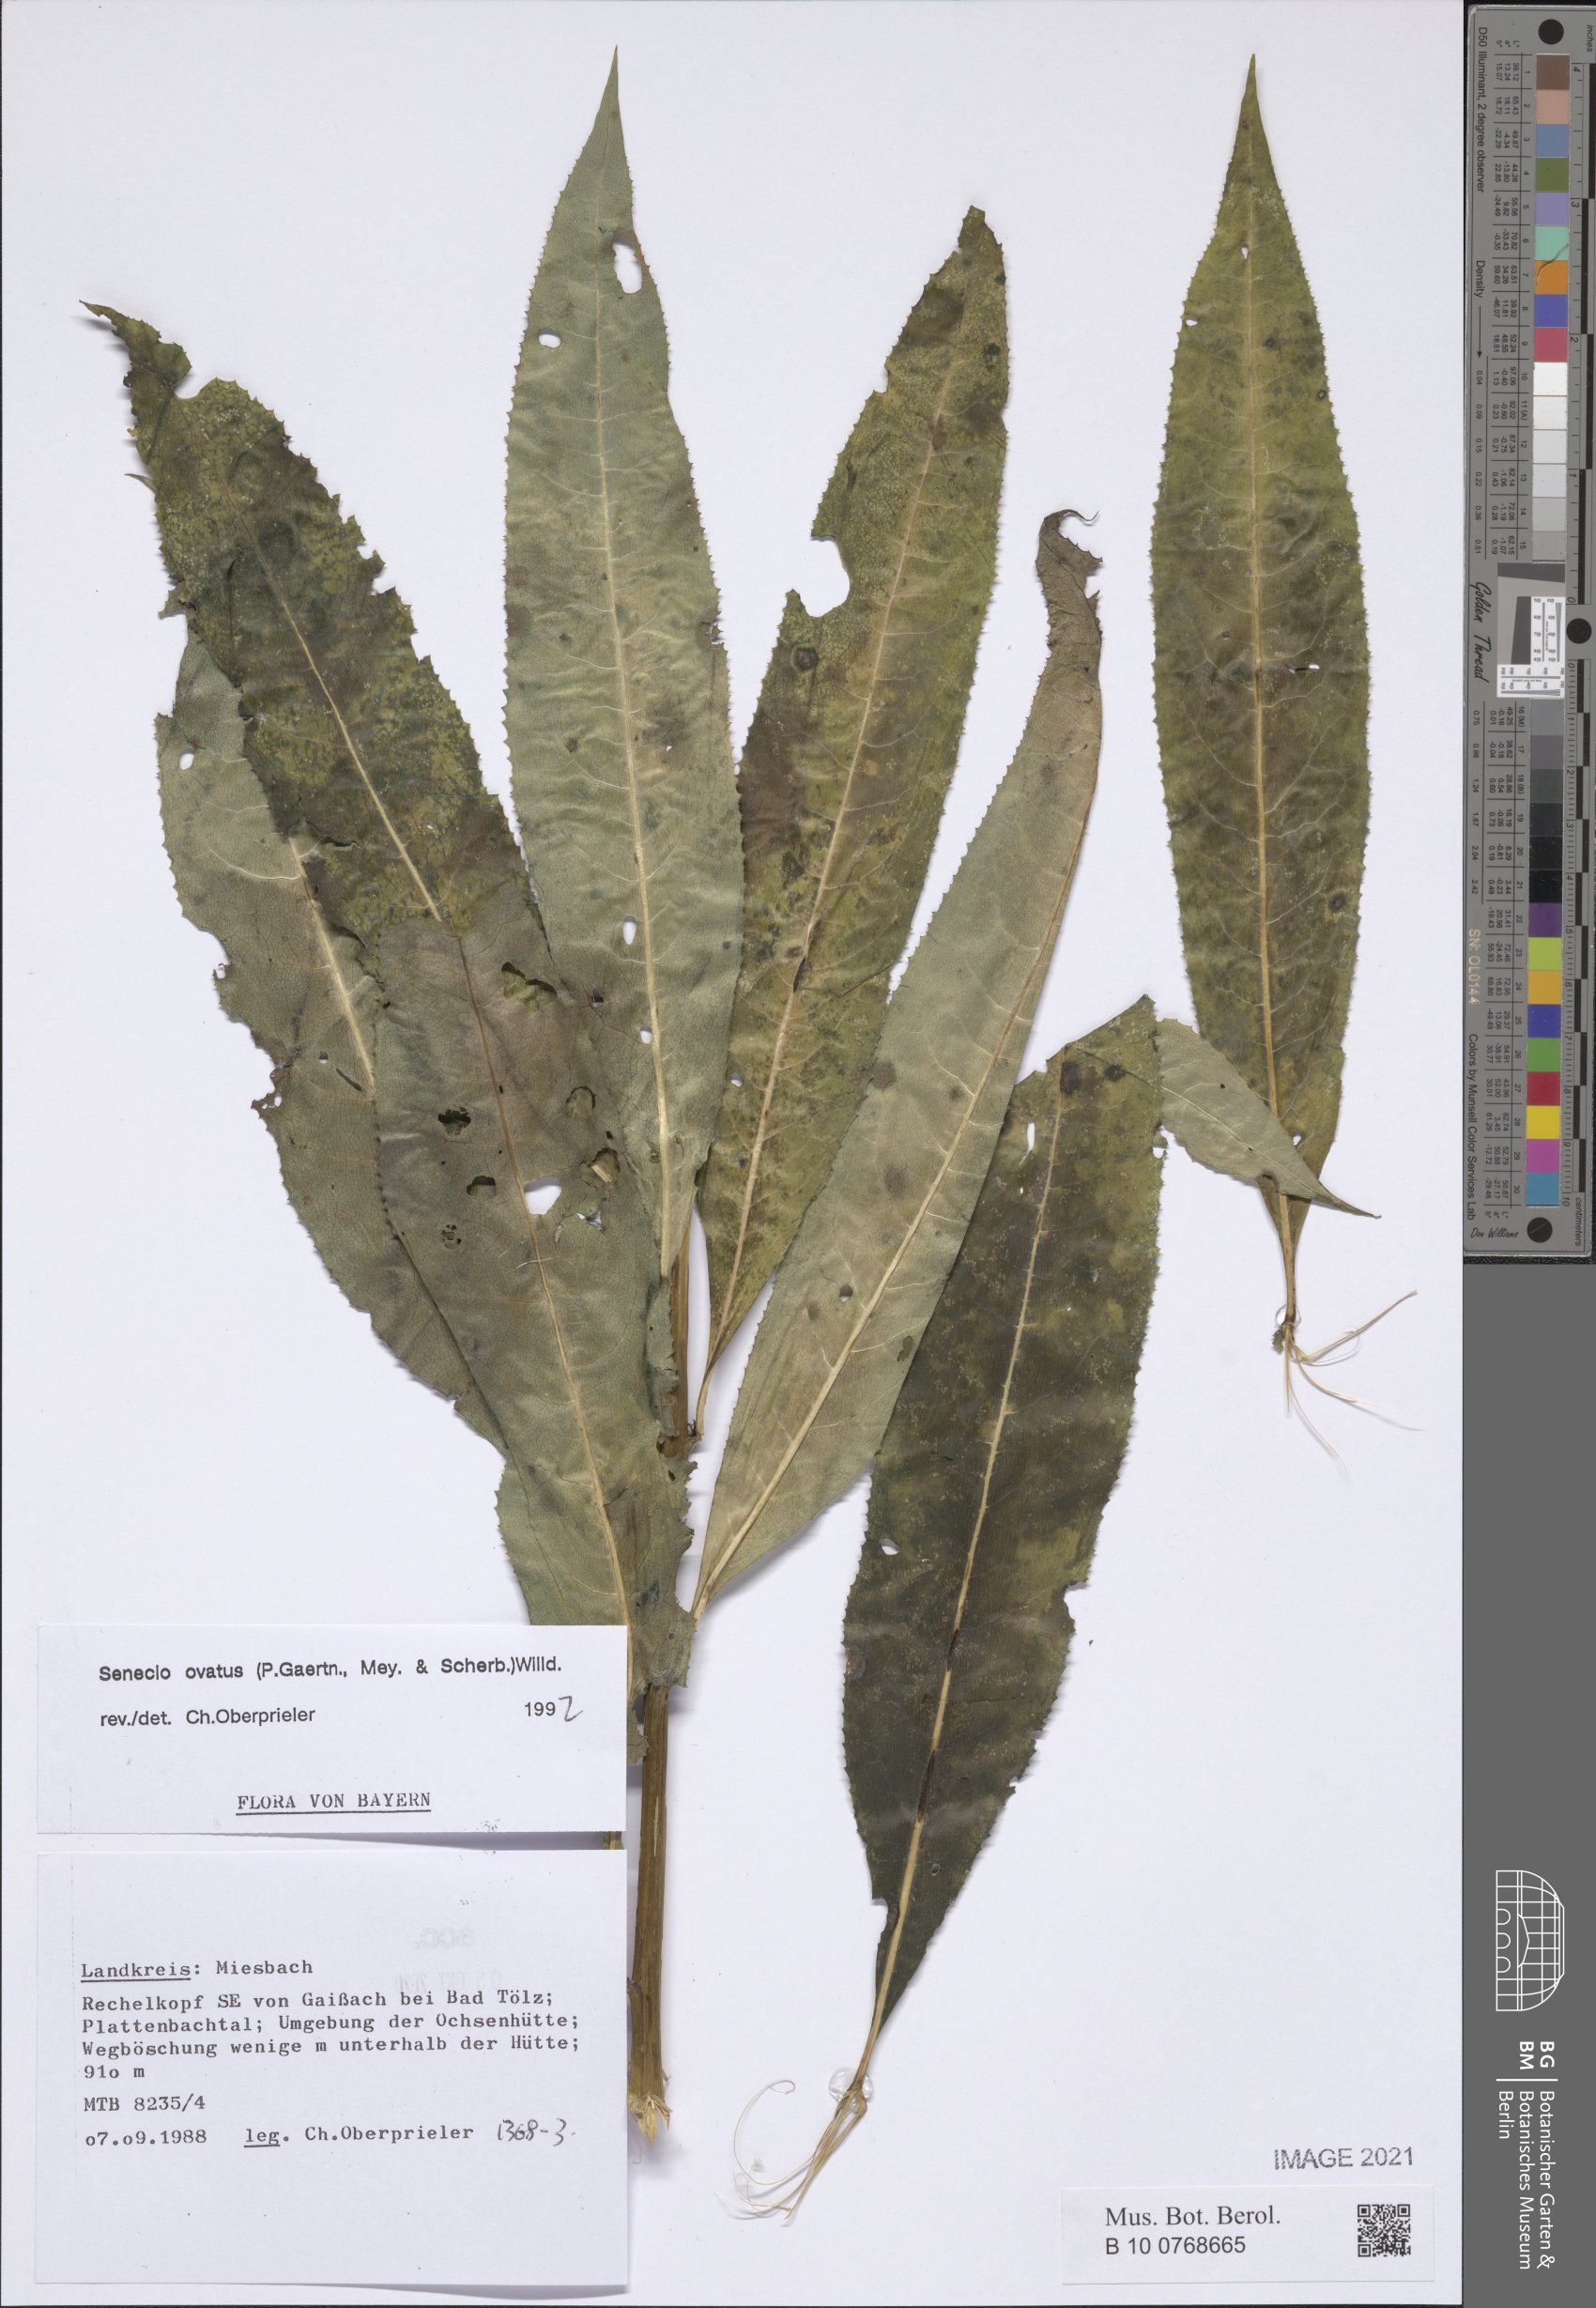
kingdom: Plantae
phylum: Tracheophyta
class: Magnoliopsida
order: Asterales
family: Asteraceae
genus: Senecio
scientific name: Senecio ovatus
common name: Wood ragwort
